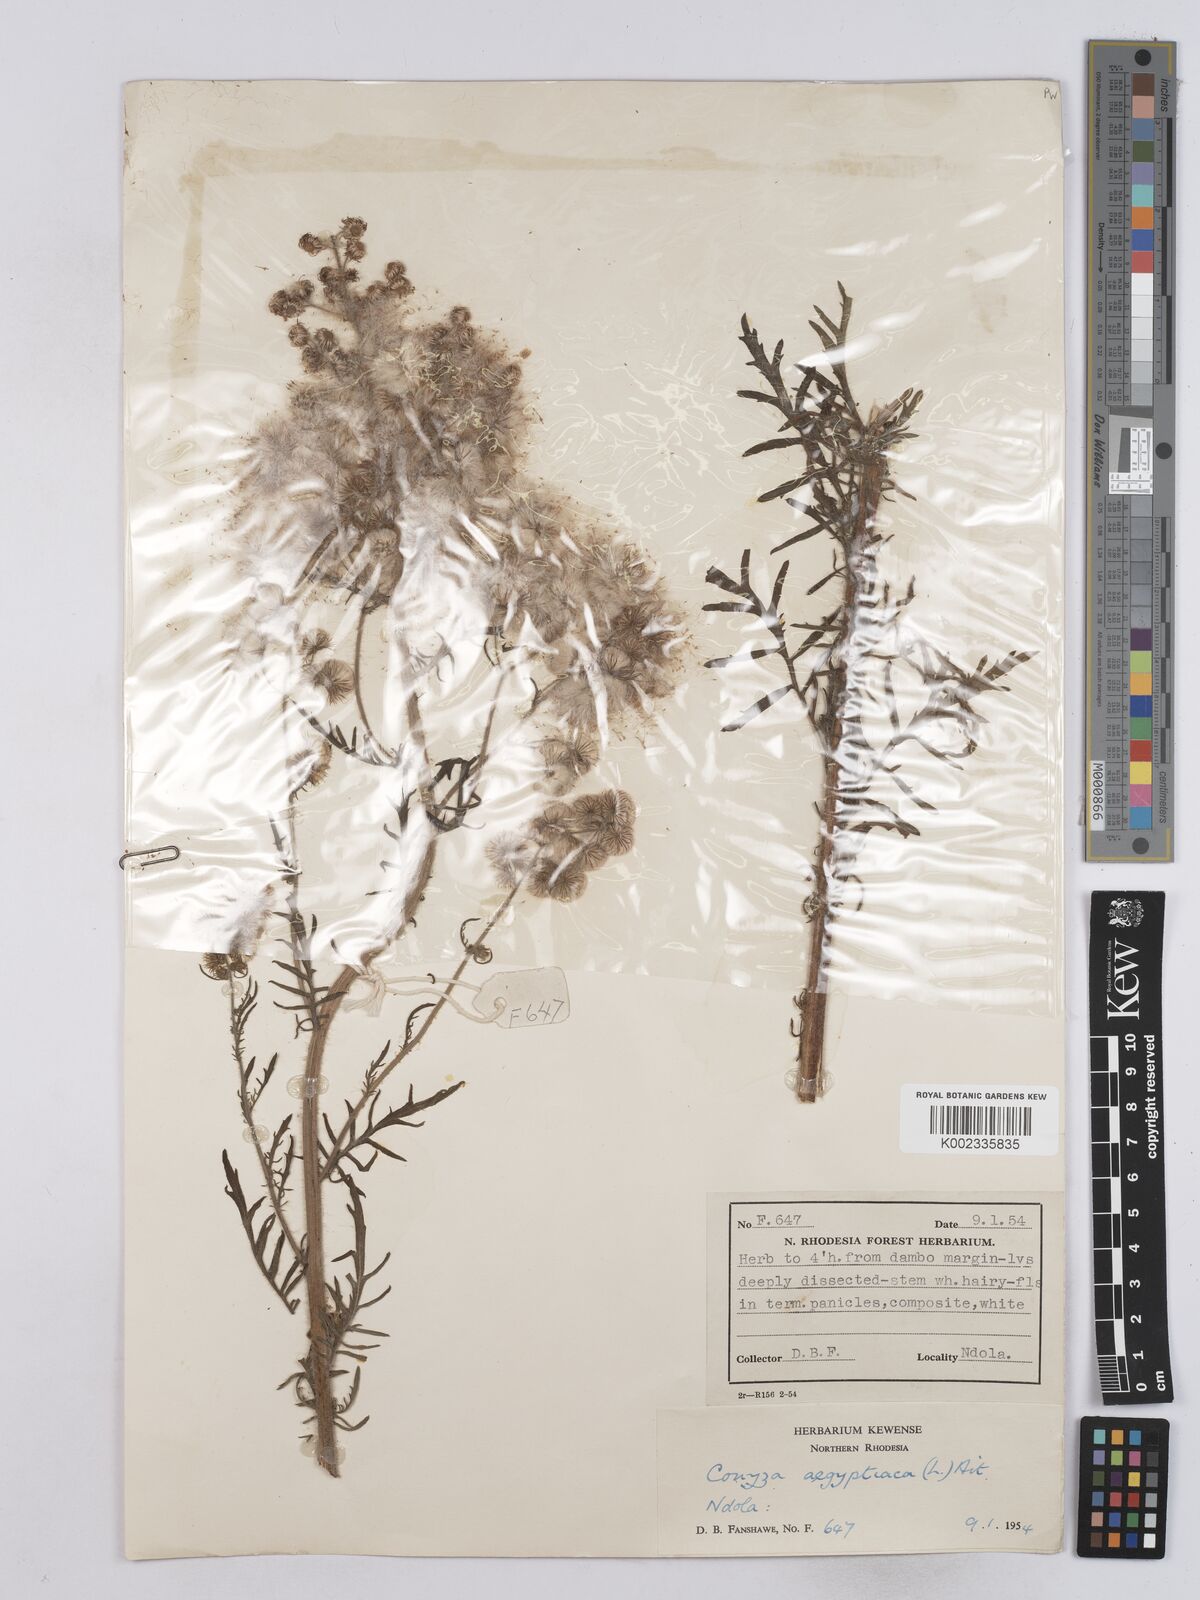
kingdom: Plantae
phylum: Tracheophyta
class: Magnoliopsida
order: Asterales
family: Asteraceae
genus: Nidorella
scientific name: Nidorella aegyptiaca
